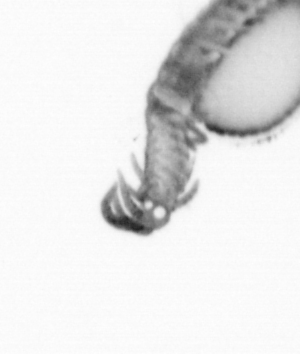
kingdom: Animalia
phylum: Annelida
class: Polychaeta
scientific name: Polychaeta
